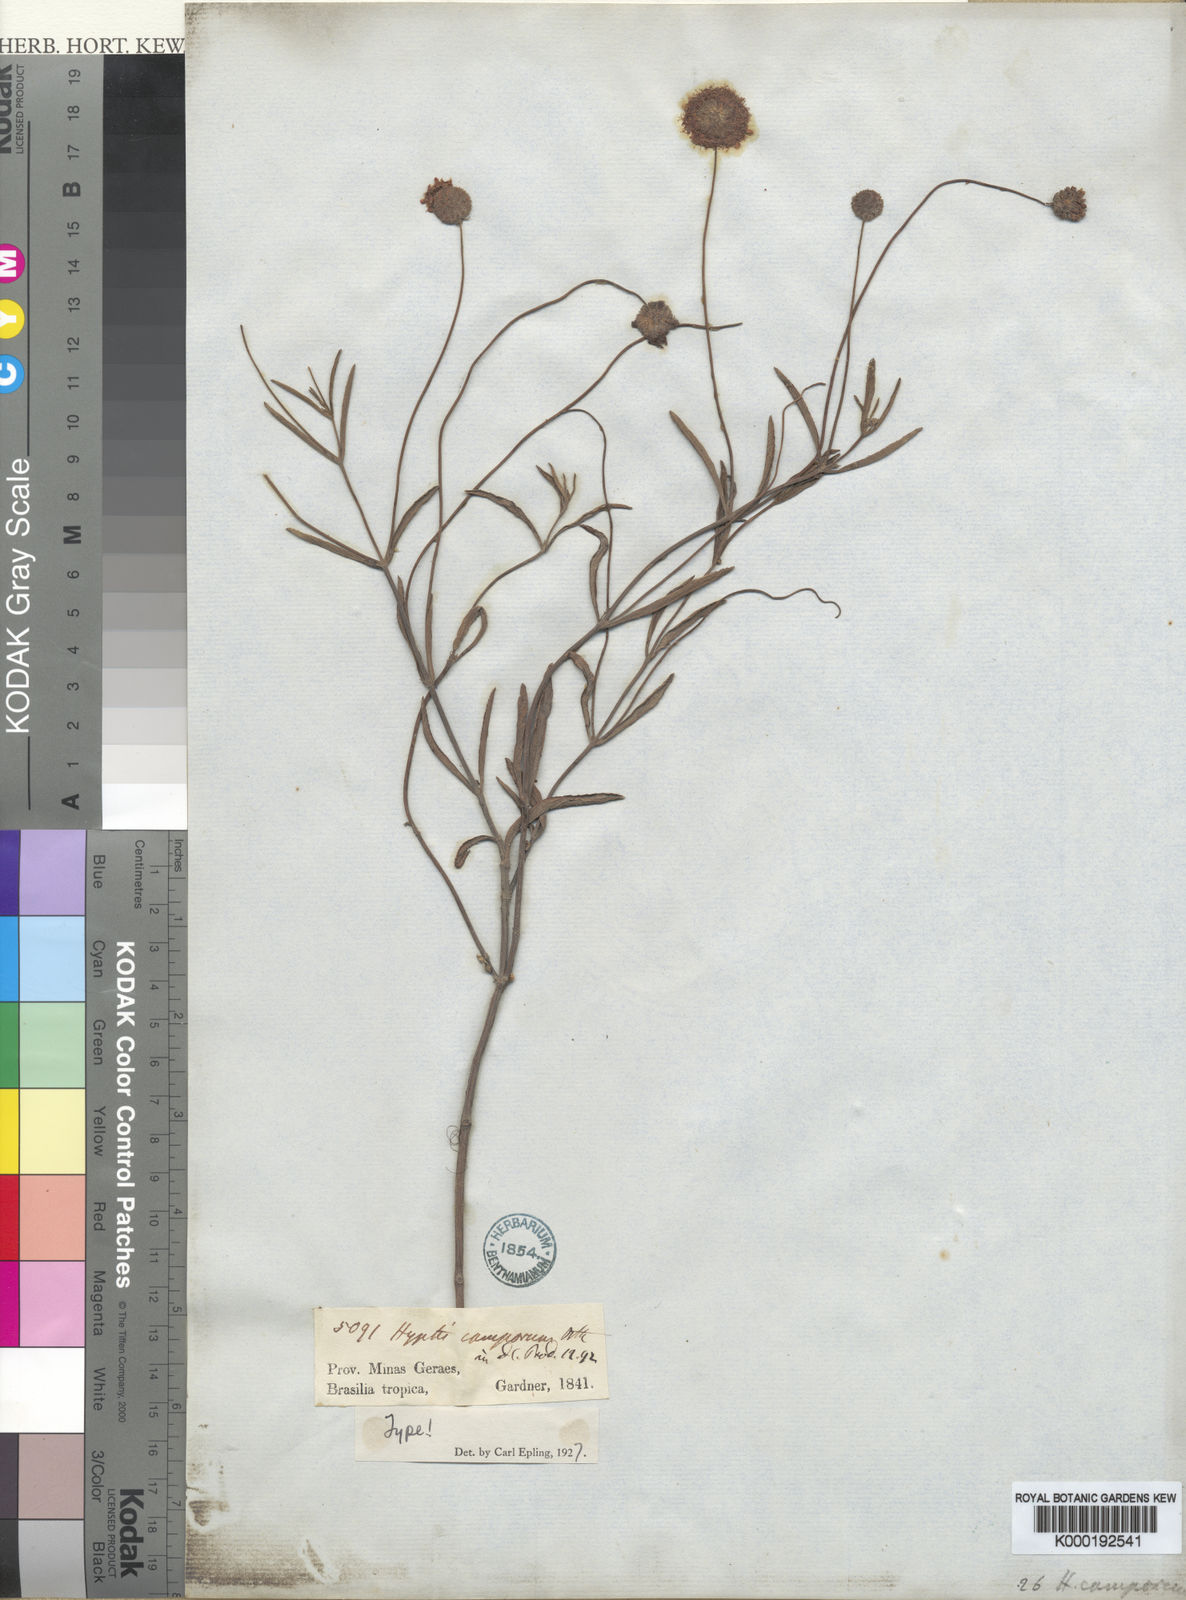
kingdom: Plantae
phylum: Tracheophyta
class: Magnoliopsida
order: Lamiales
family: Lamiaceae
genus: Cyanocephalus
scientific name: Cyanocephalus peduncularis
